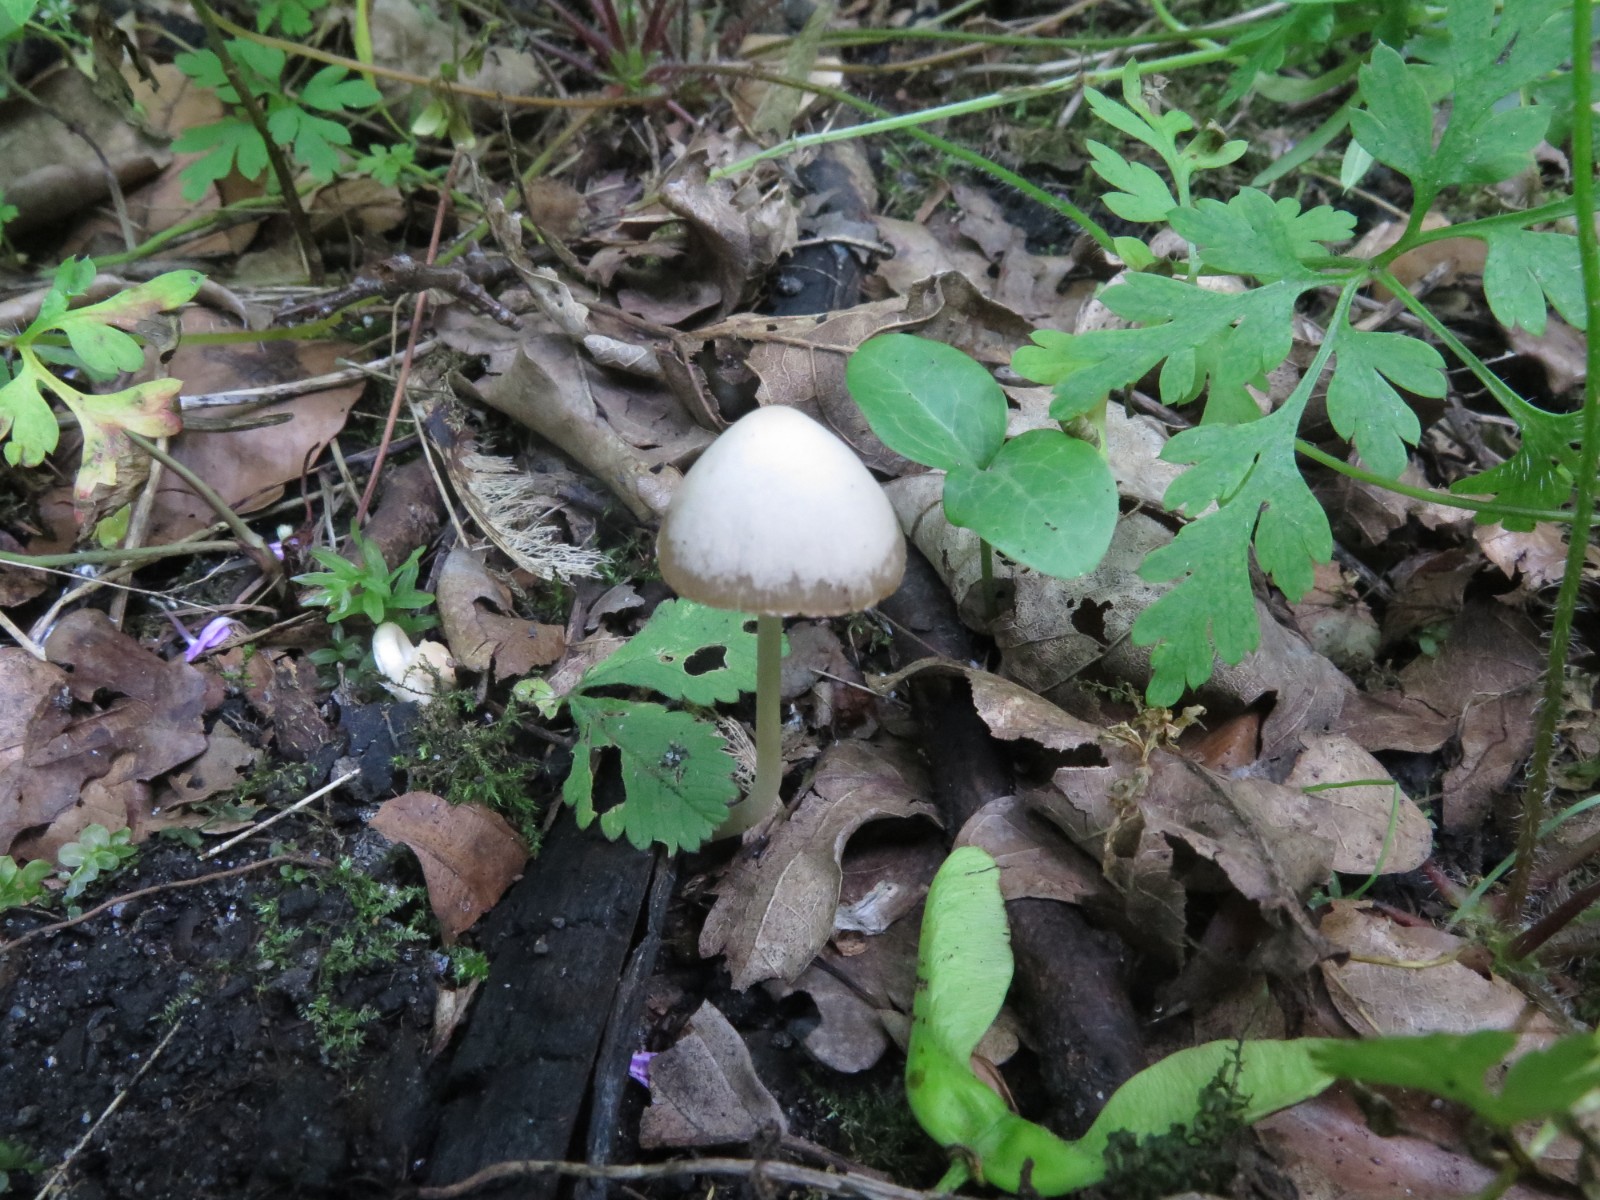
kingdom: Fungi
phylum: Basidiomycota
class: Agaricomycetes
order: Agaricales
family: Psathyrellaceae
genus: Psathyrella
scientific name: Psathyrella
